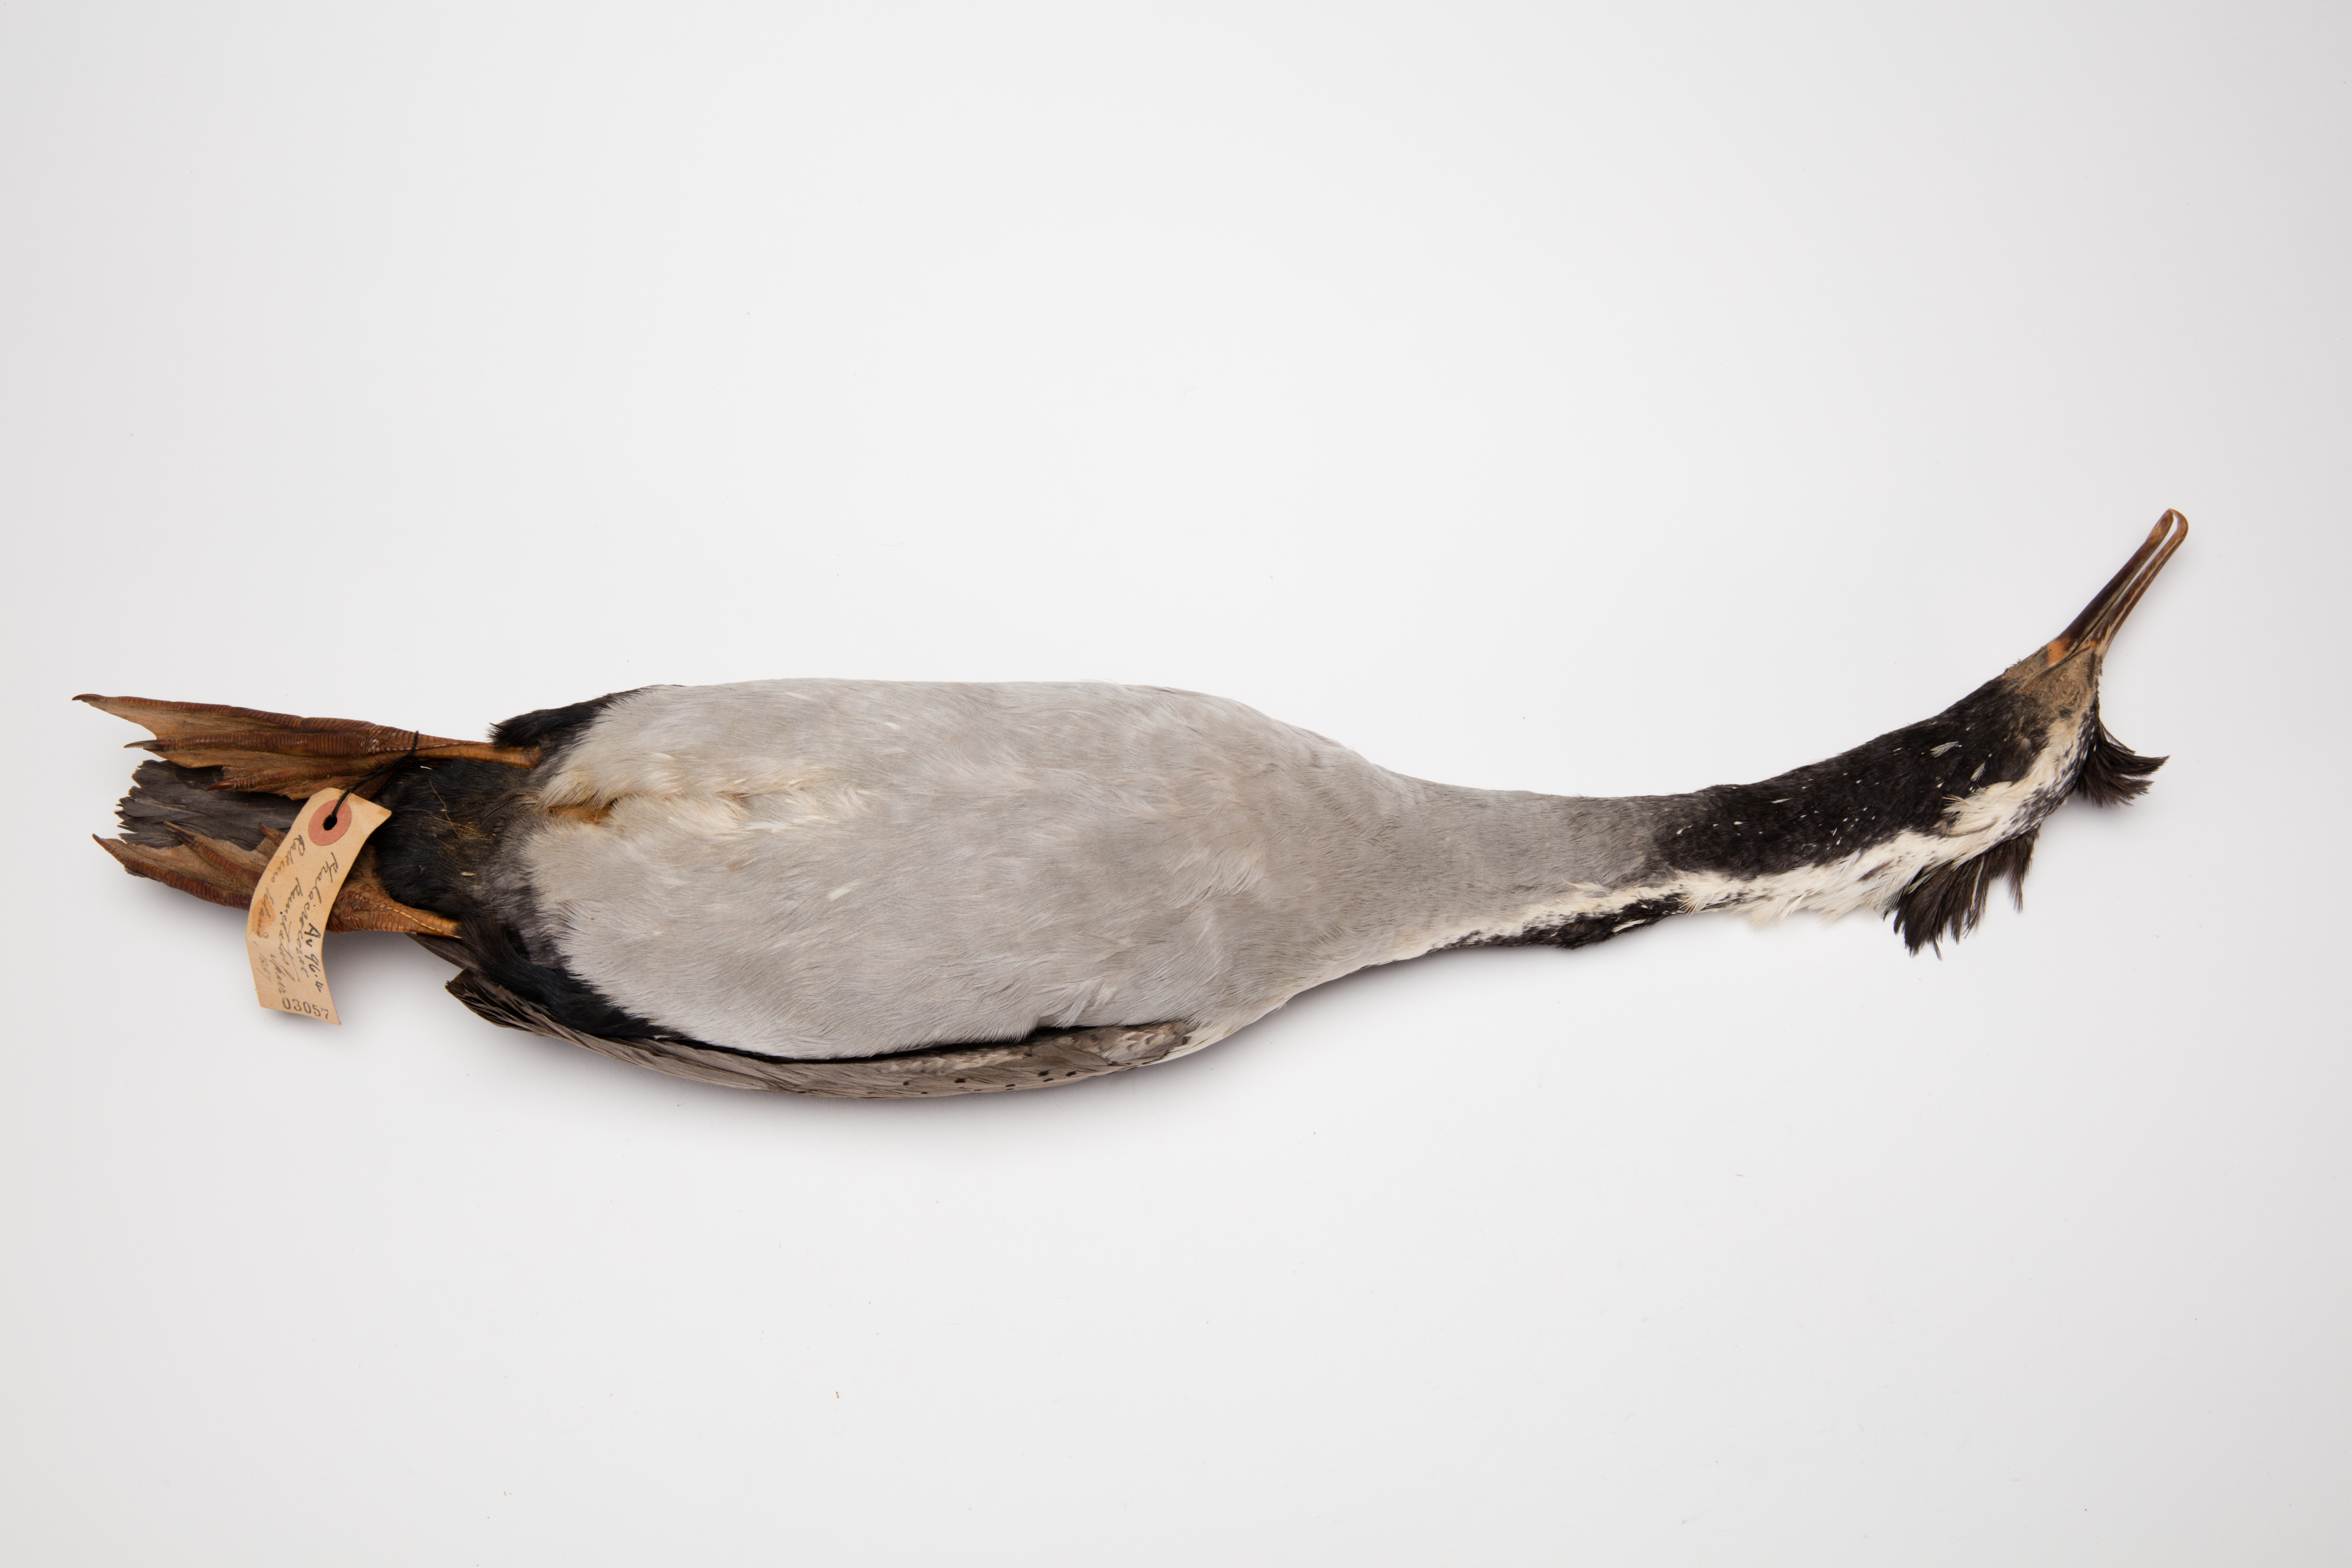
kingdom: Animalia
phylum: Chordata
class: Aves
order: Suliformes
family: Phalacrocoracidae
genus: Phalacrocorax
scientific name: Phalacrocorax punctatus
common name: Spotted shag
